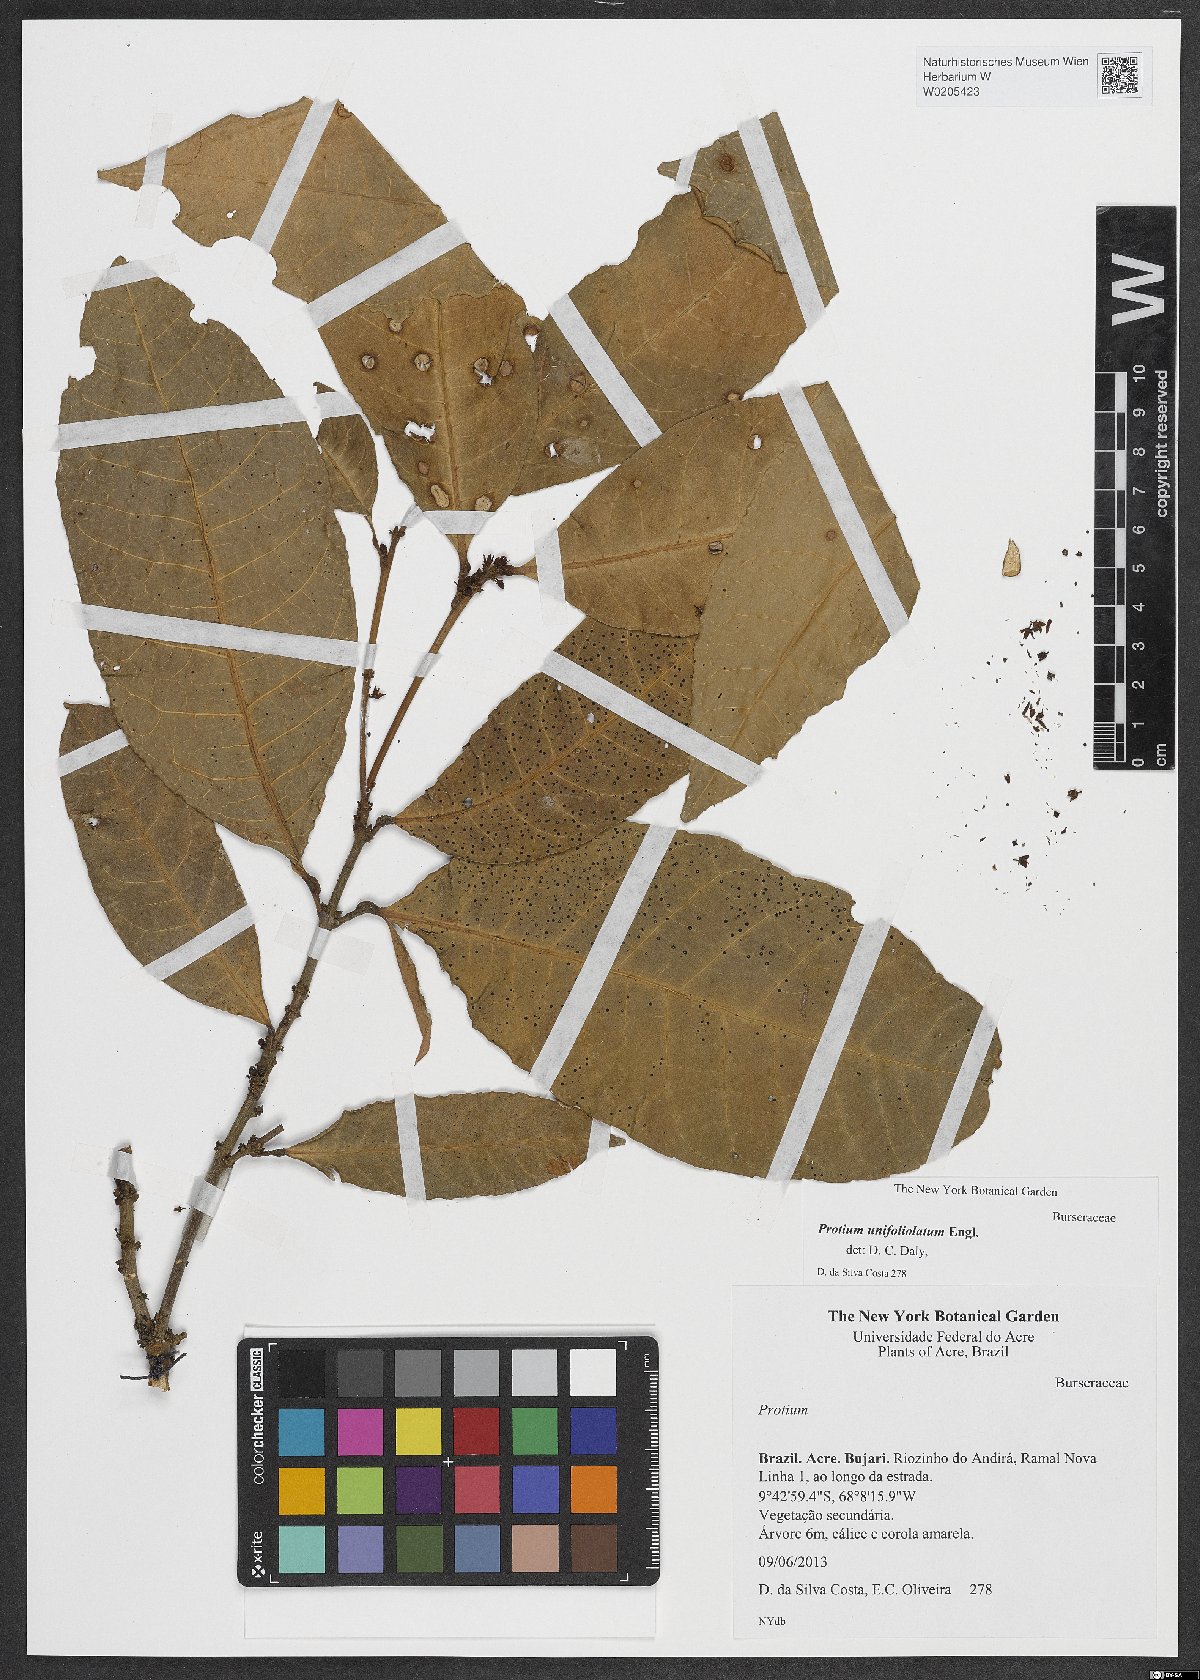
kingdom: Plantae
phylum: Tracheophyta
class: Magnoliopsida
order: Sapindales
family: Burseraceae
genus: Protium
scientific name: Protium unifoliolatum
